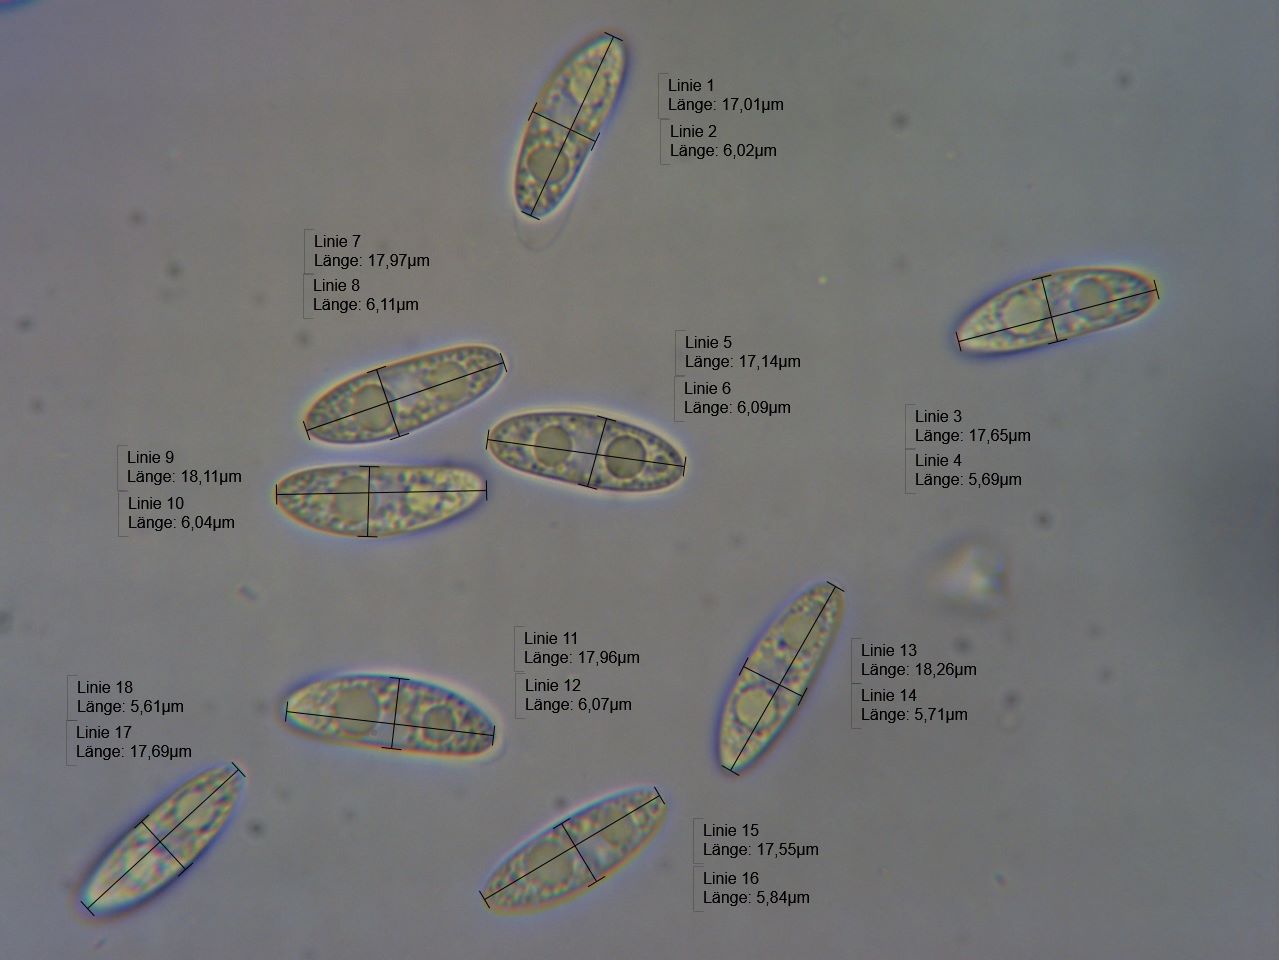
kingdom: Fungi
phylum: Ascomycota
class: Leotiomycetes
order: Helotiales
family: Rutstroemiaceae
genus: Rutstroemia
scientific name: Rutstroemia firma
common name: gren-brunskive
